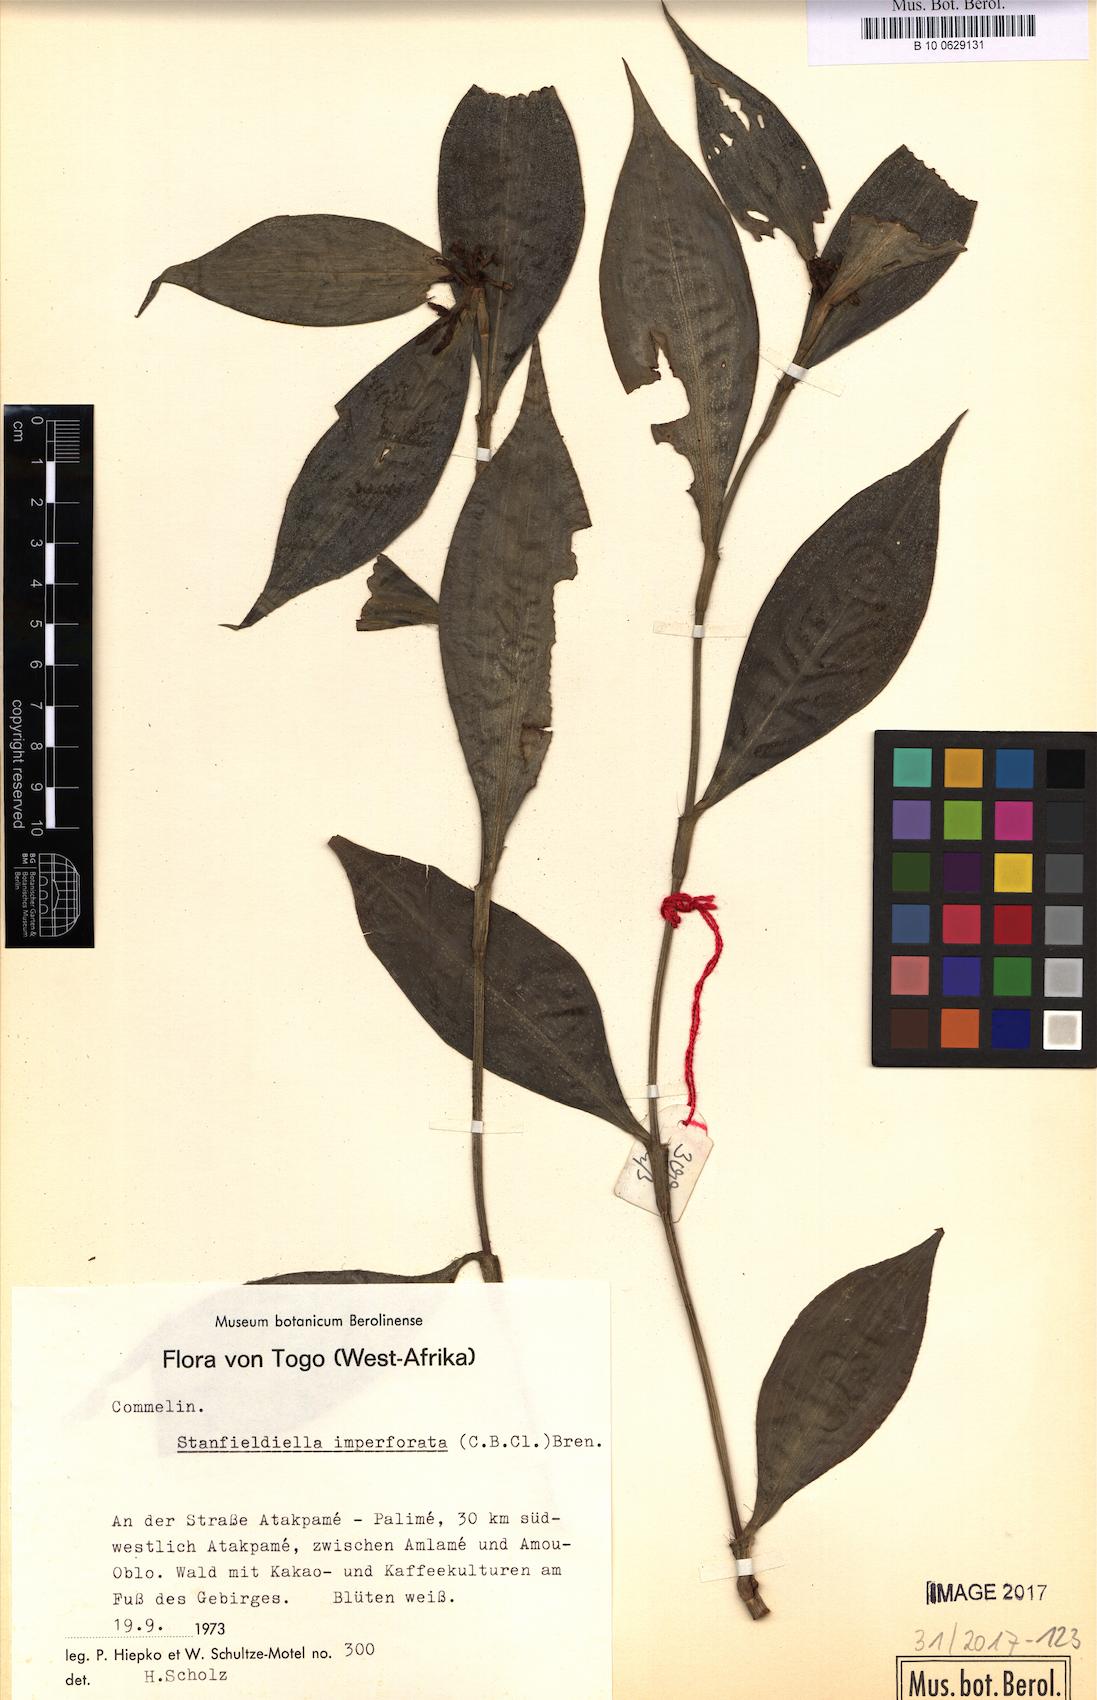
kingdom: Plantae
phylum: Tracheophyta
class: Liliopsida
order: Commelinales
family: Commelinaceae
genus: Stanfieldiella
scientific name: Stanfieldiella imperforata
